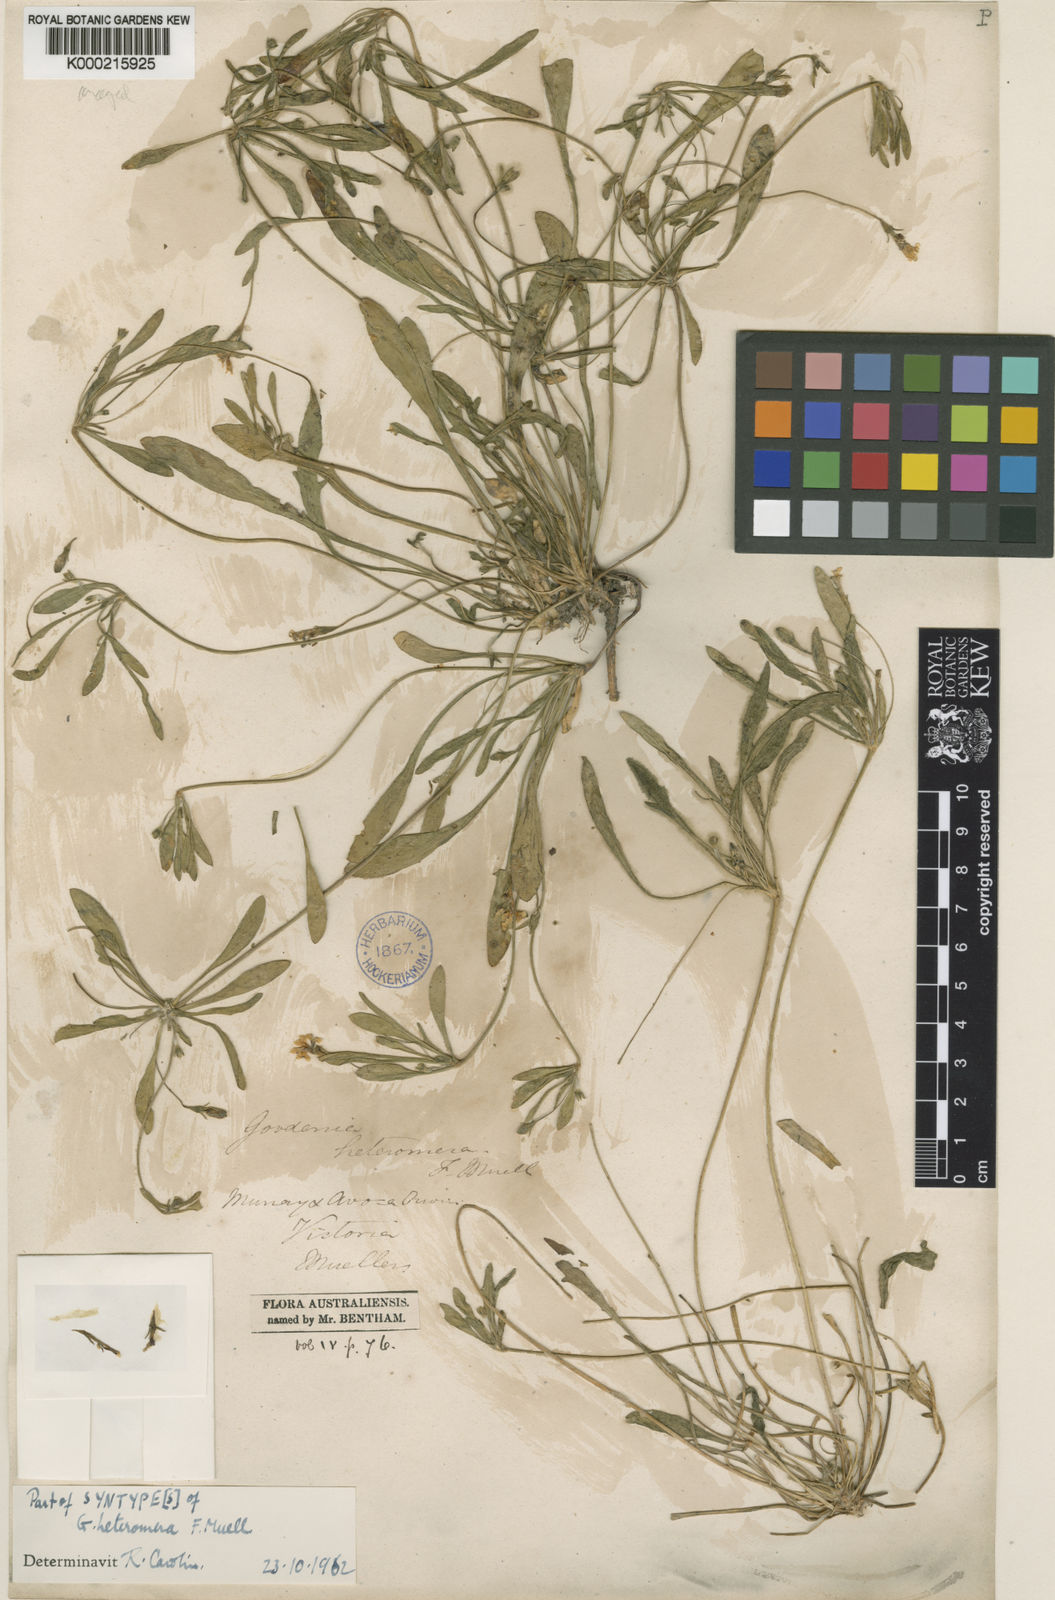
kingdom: Plantae
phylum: Tracheophyta
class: Magnoliopsida
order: Asterales
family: Goodeniaceae
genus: Goodenia
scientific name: Goodenia heteromera
